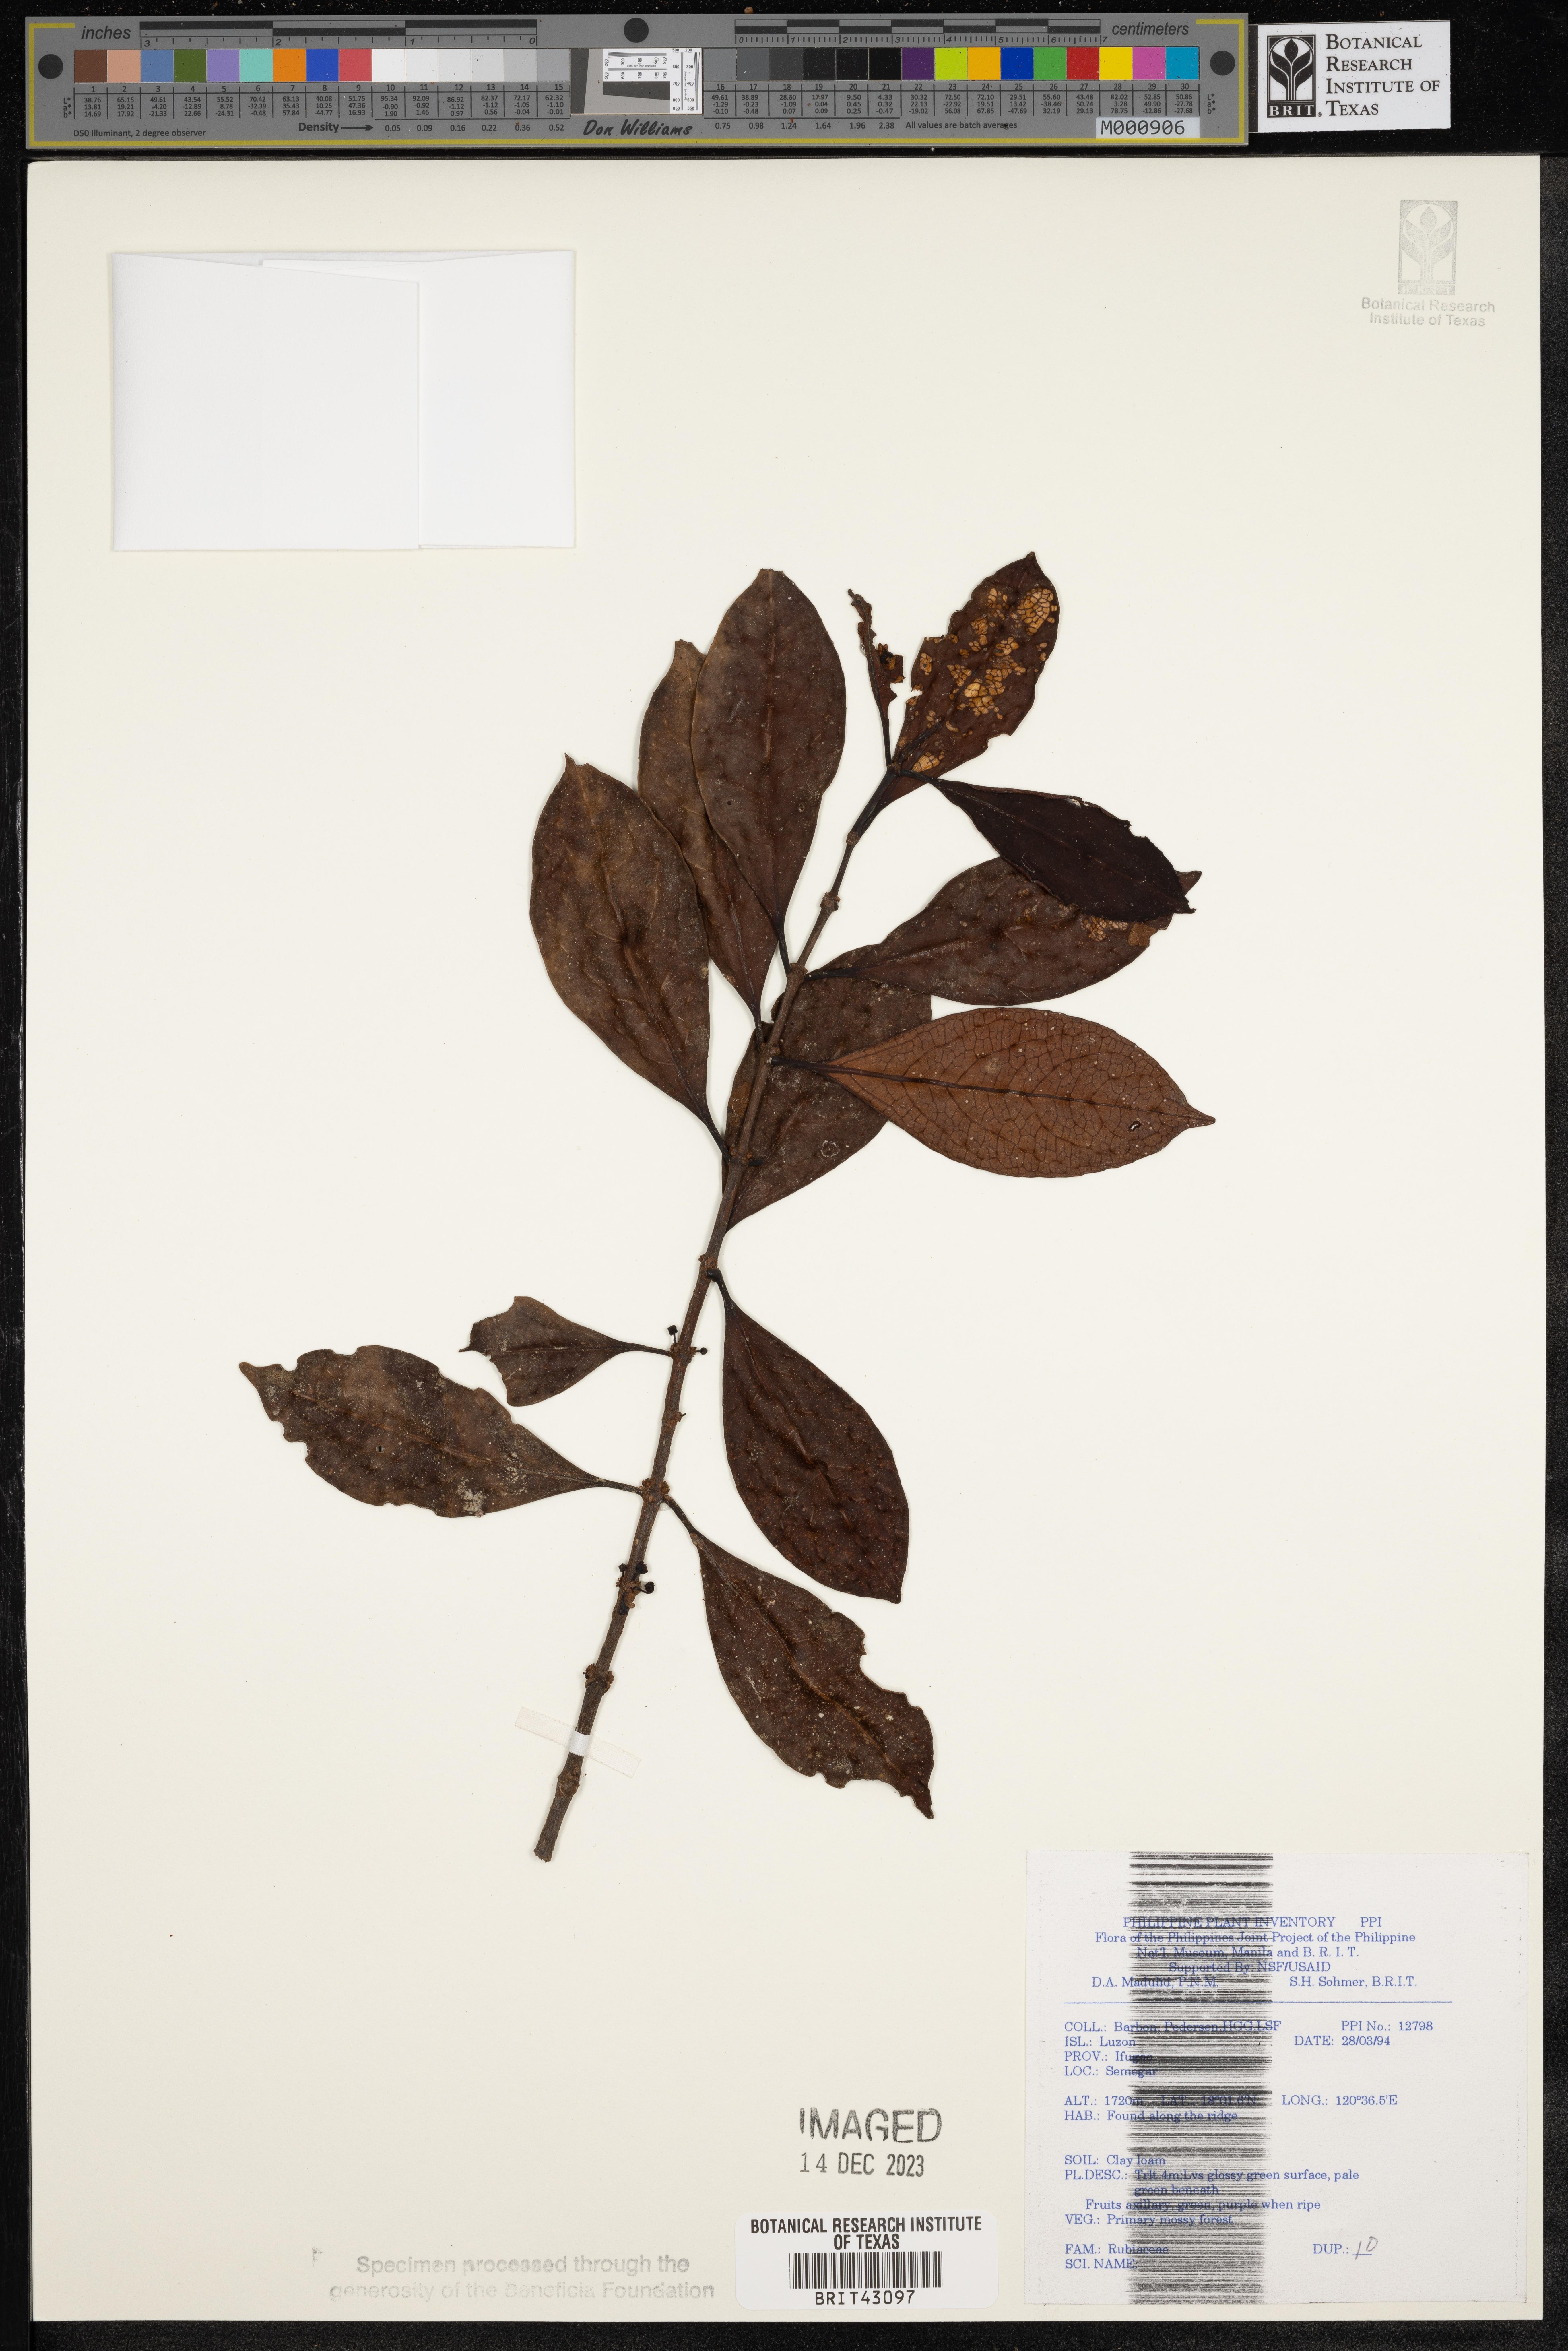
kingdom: Plantae
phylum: Tracheophyta
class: Magnoliopsida
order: Gentianales
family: Rubiaceae
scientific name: Rubiaceae
